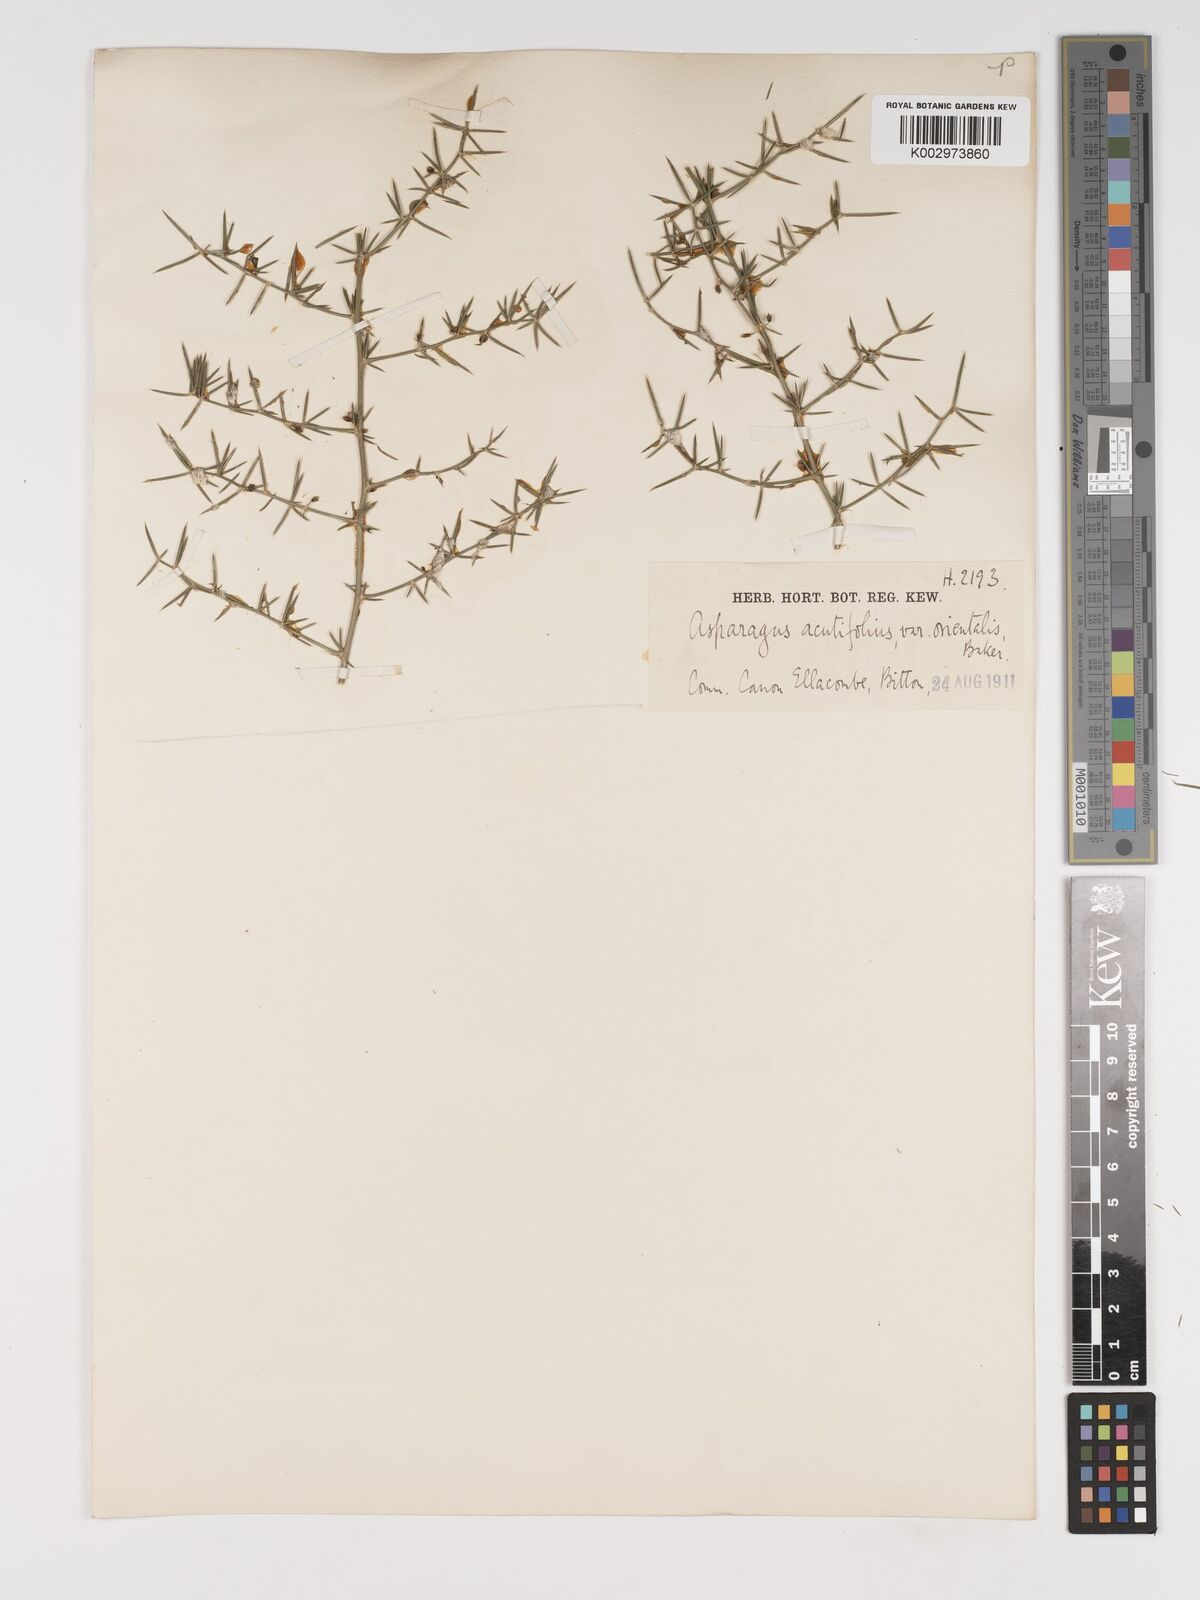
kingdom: Plantae
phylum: Tracheophyta
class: Liliopsida
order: Asparagales
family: Asparagaceae
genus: Asparagus
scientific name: Asparagus acutifolius
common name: Wild asparagus
